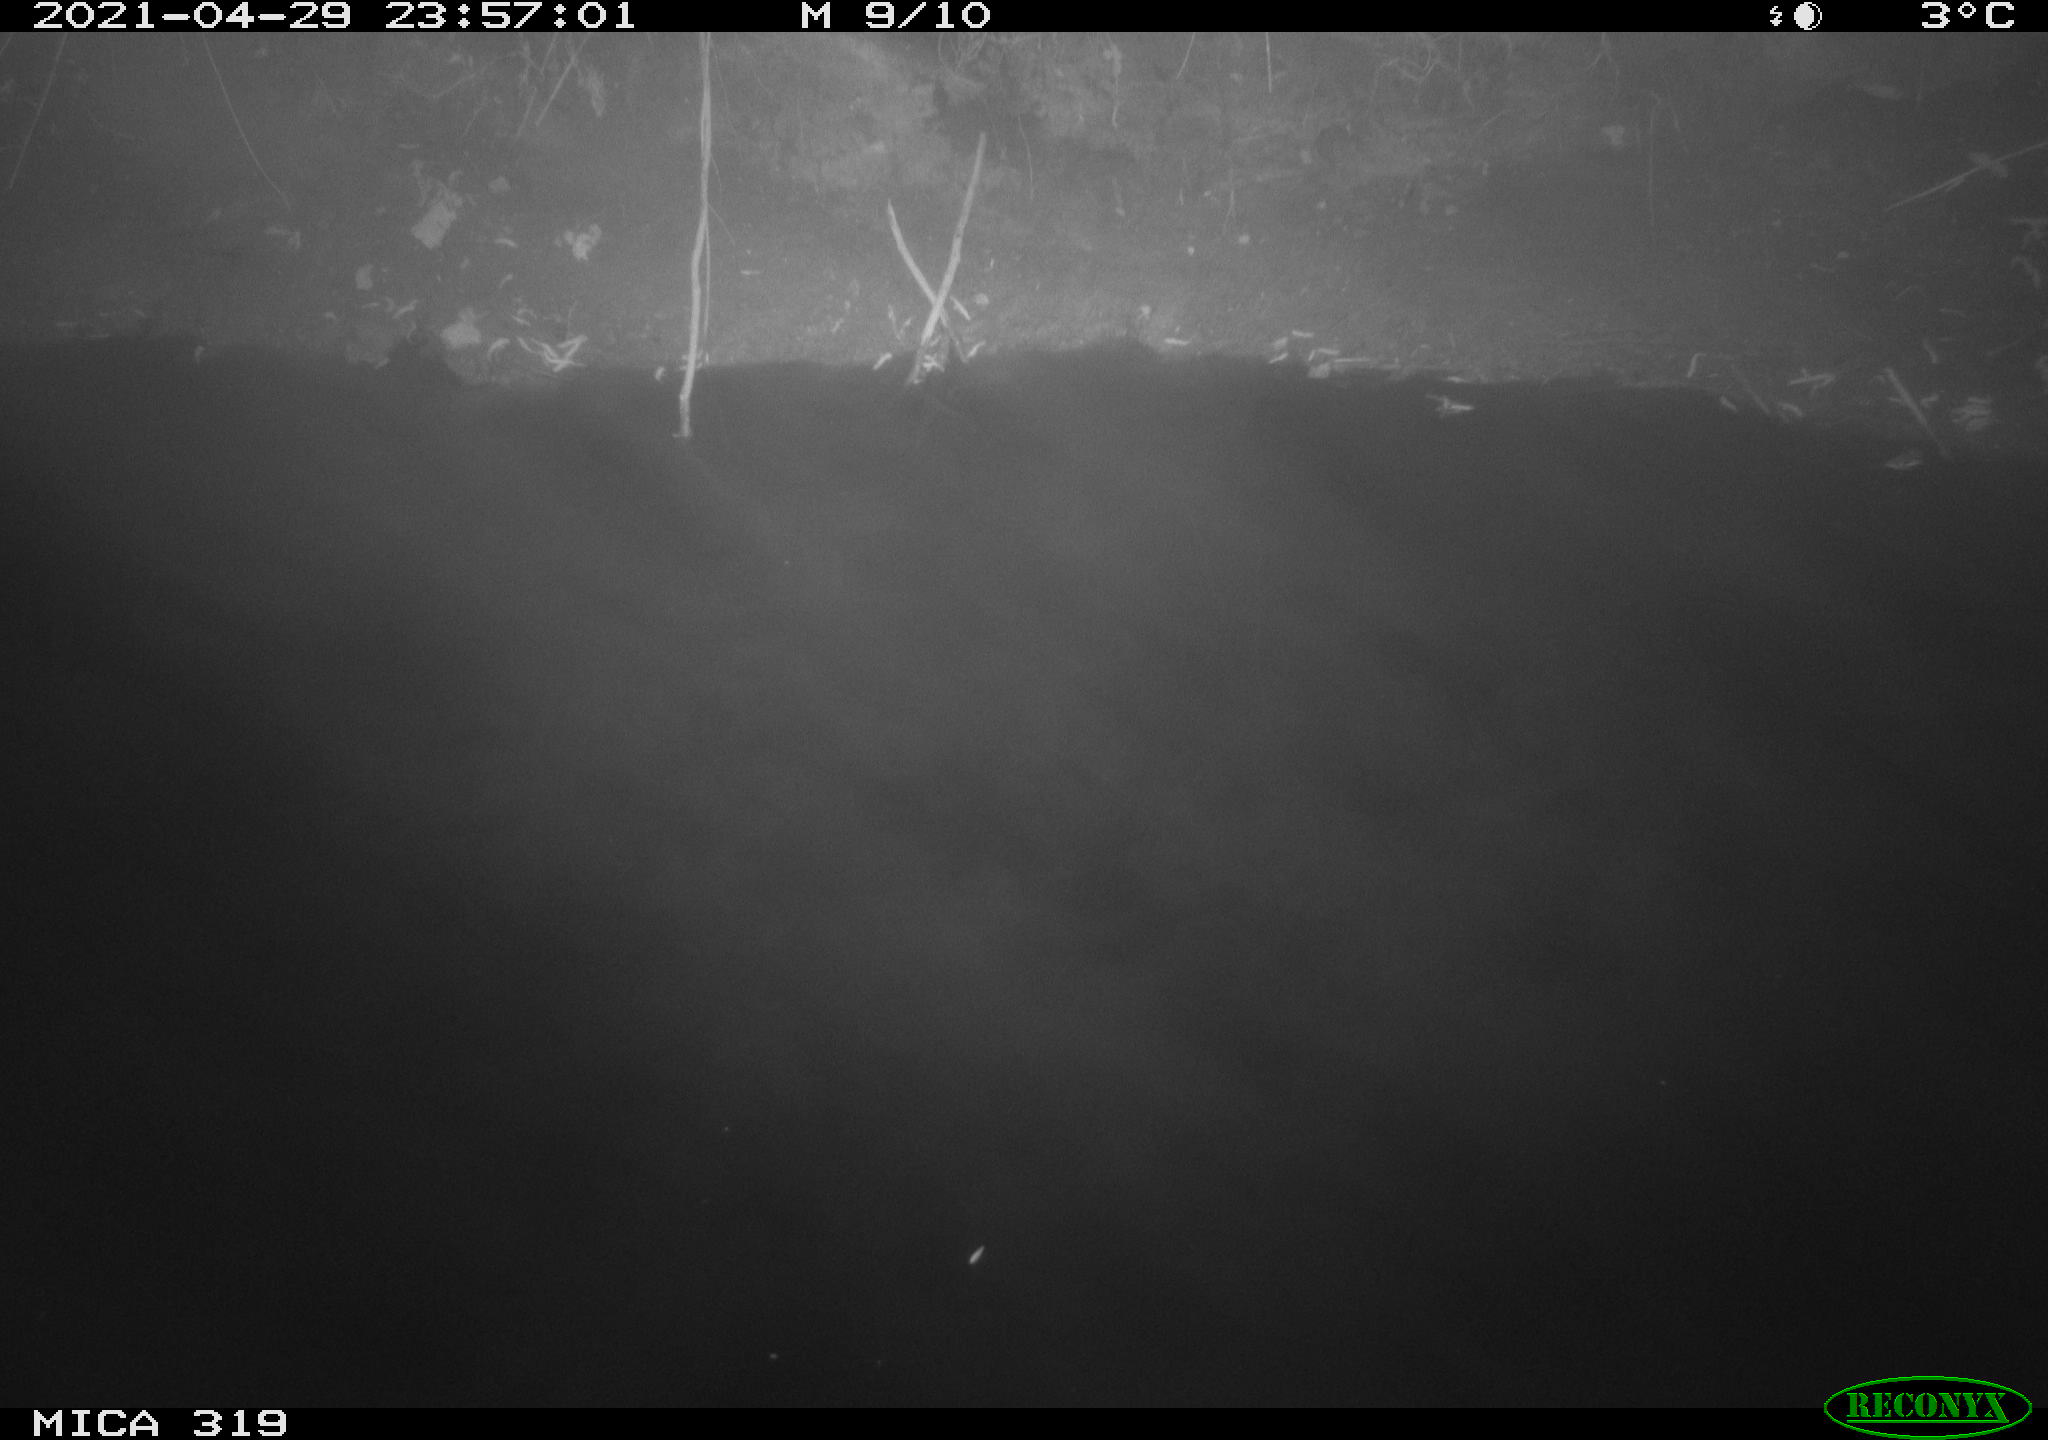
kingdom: Animalia
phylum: Chordata
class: Aves
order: Anseriformes
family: Anatidae
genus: Anas
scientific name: Anas platyrhynchos
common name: Mallard
